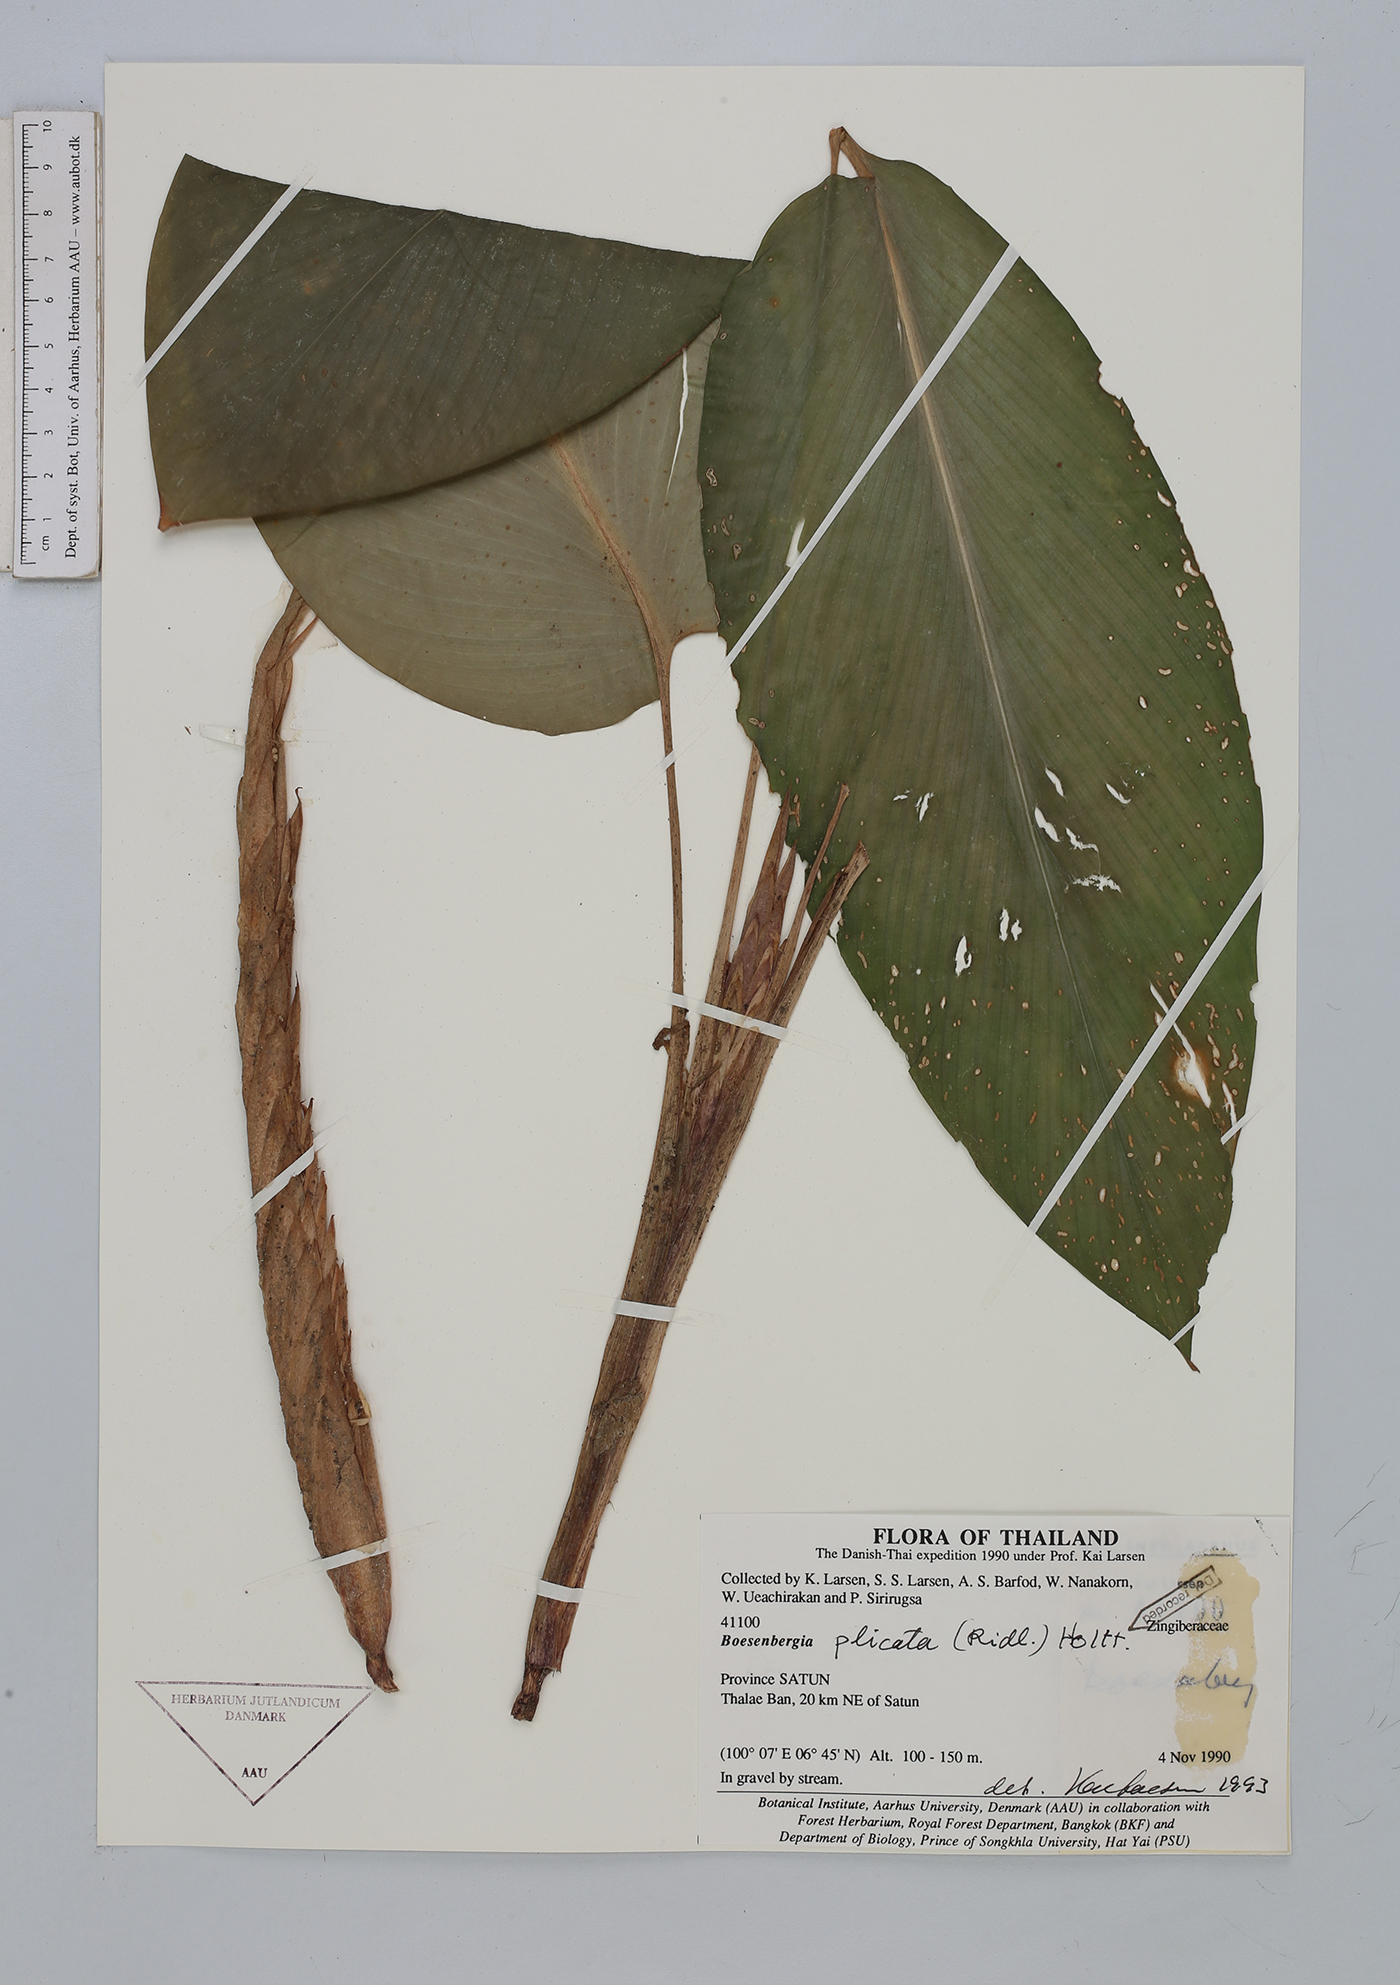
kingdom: Plantae
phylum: Tracheophyta
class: Liliopsida
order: Zingiberales
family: Zingiberaceae
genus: Boesenbergia
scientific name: Boesenbergia plicata
